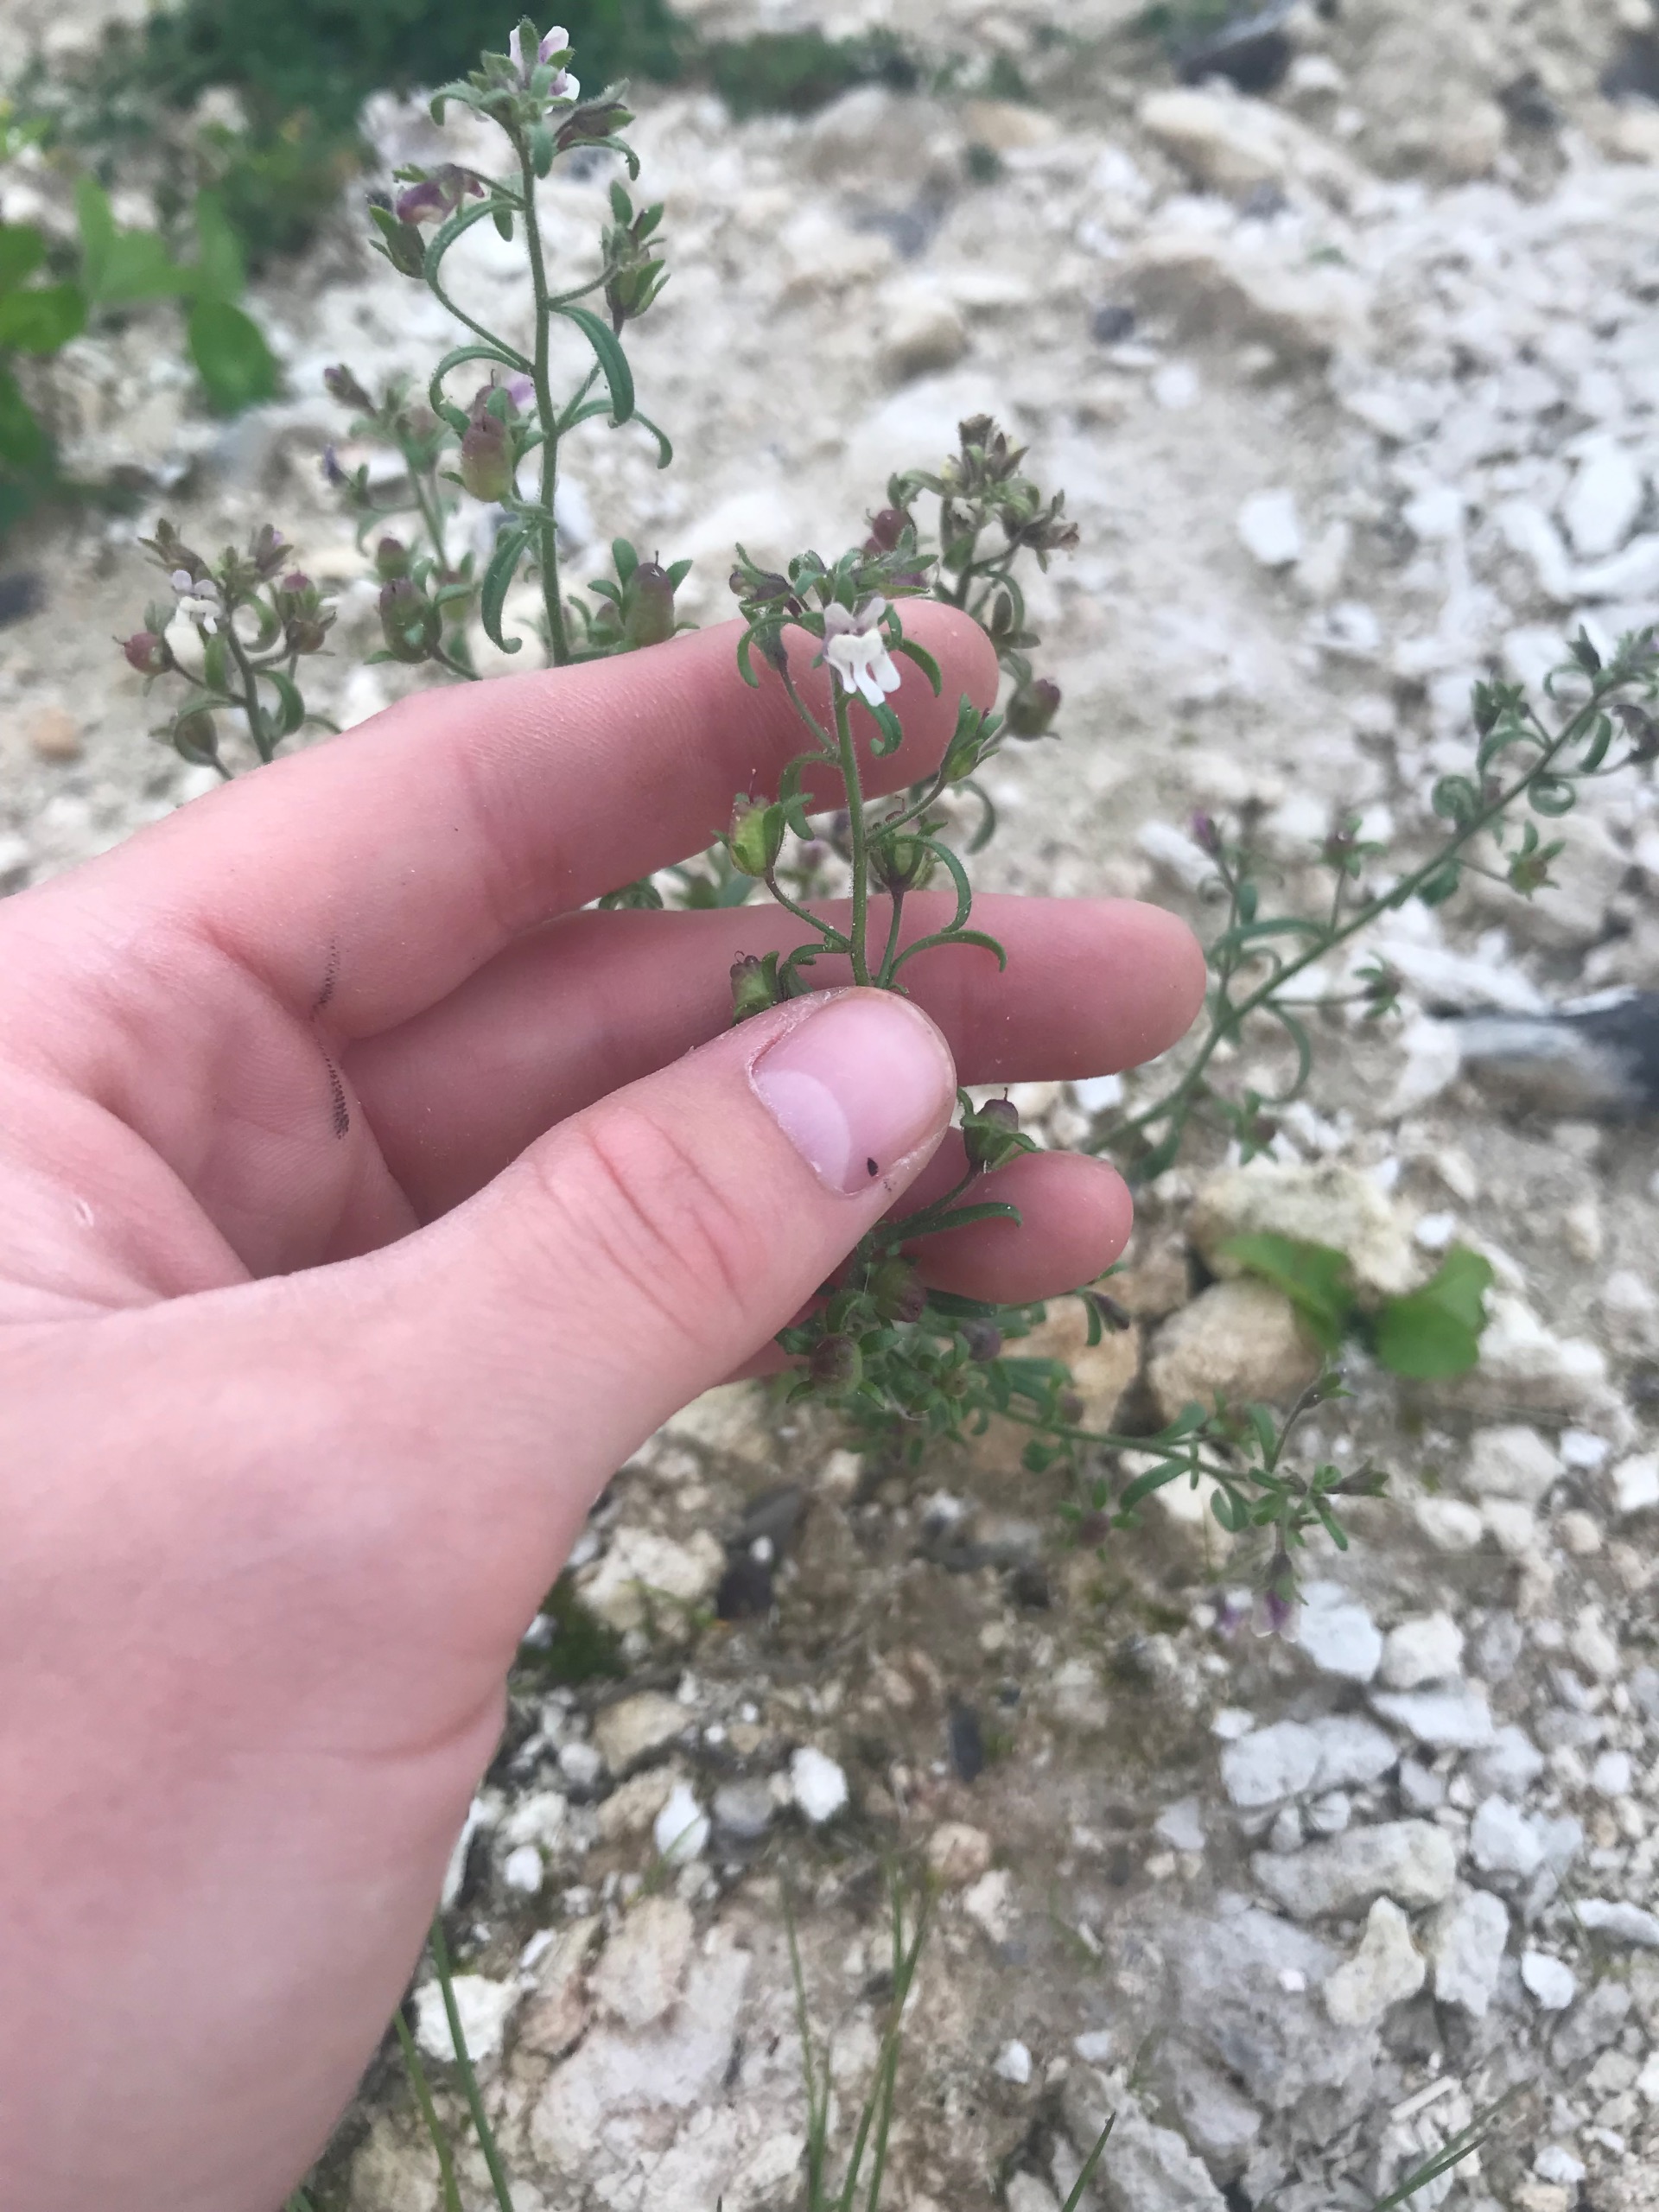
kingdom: Plantae
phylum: Tracheophyta
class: Magnoliopsida
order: Lamiales
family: Plantaginaceae
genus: Chaenorhinum
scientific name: Chaenorhinum minus
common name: Liden torskemund
